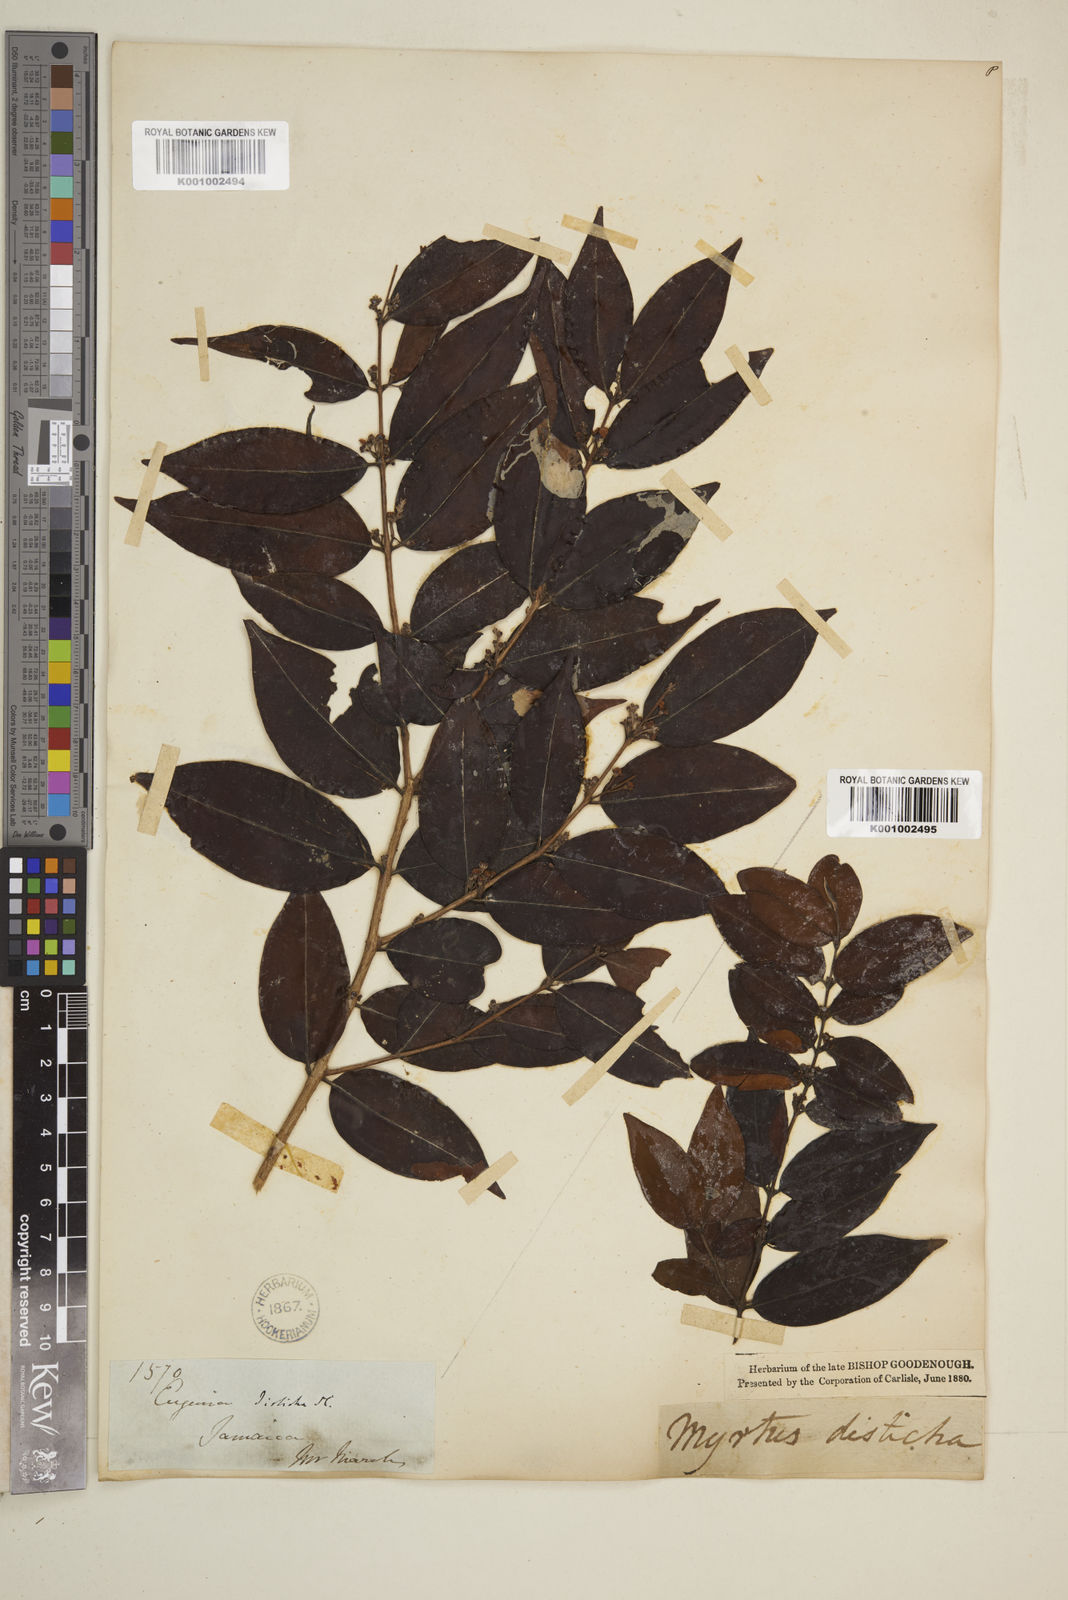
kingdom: Plantae
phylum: Tracheophyta
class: Magnoliopsida
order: Myrtales
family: Myrtaceae
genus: Eugenia
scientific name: Eugenia disticha
